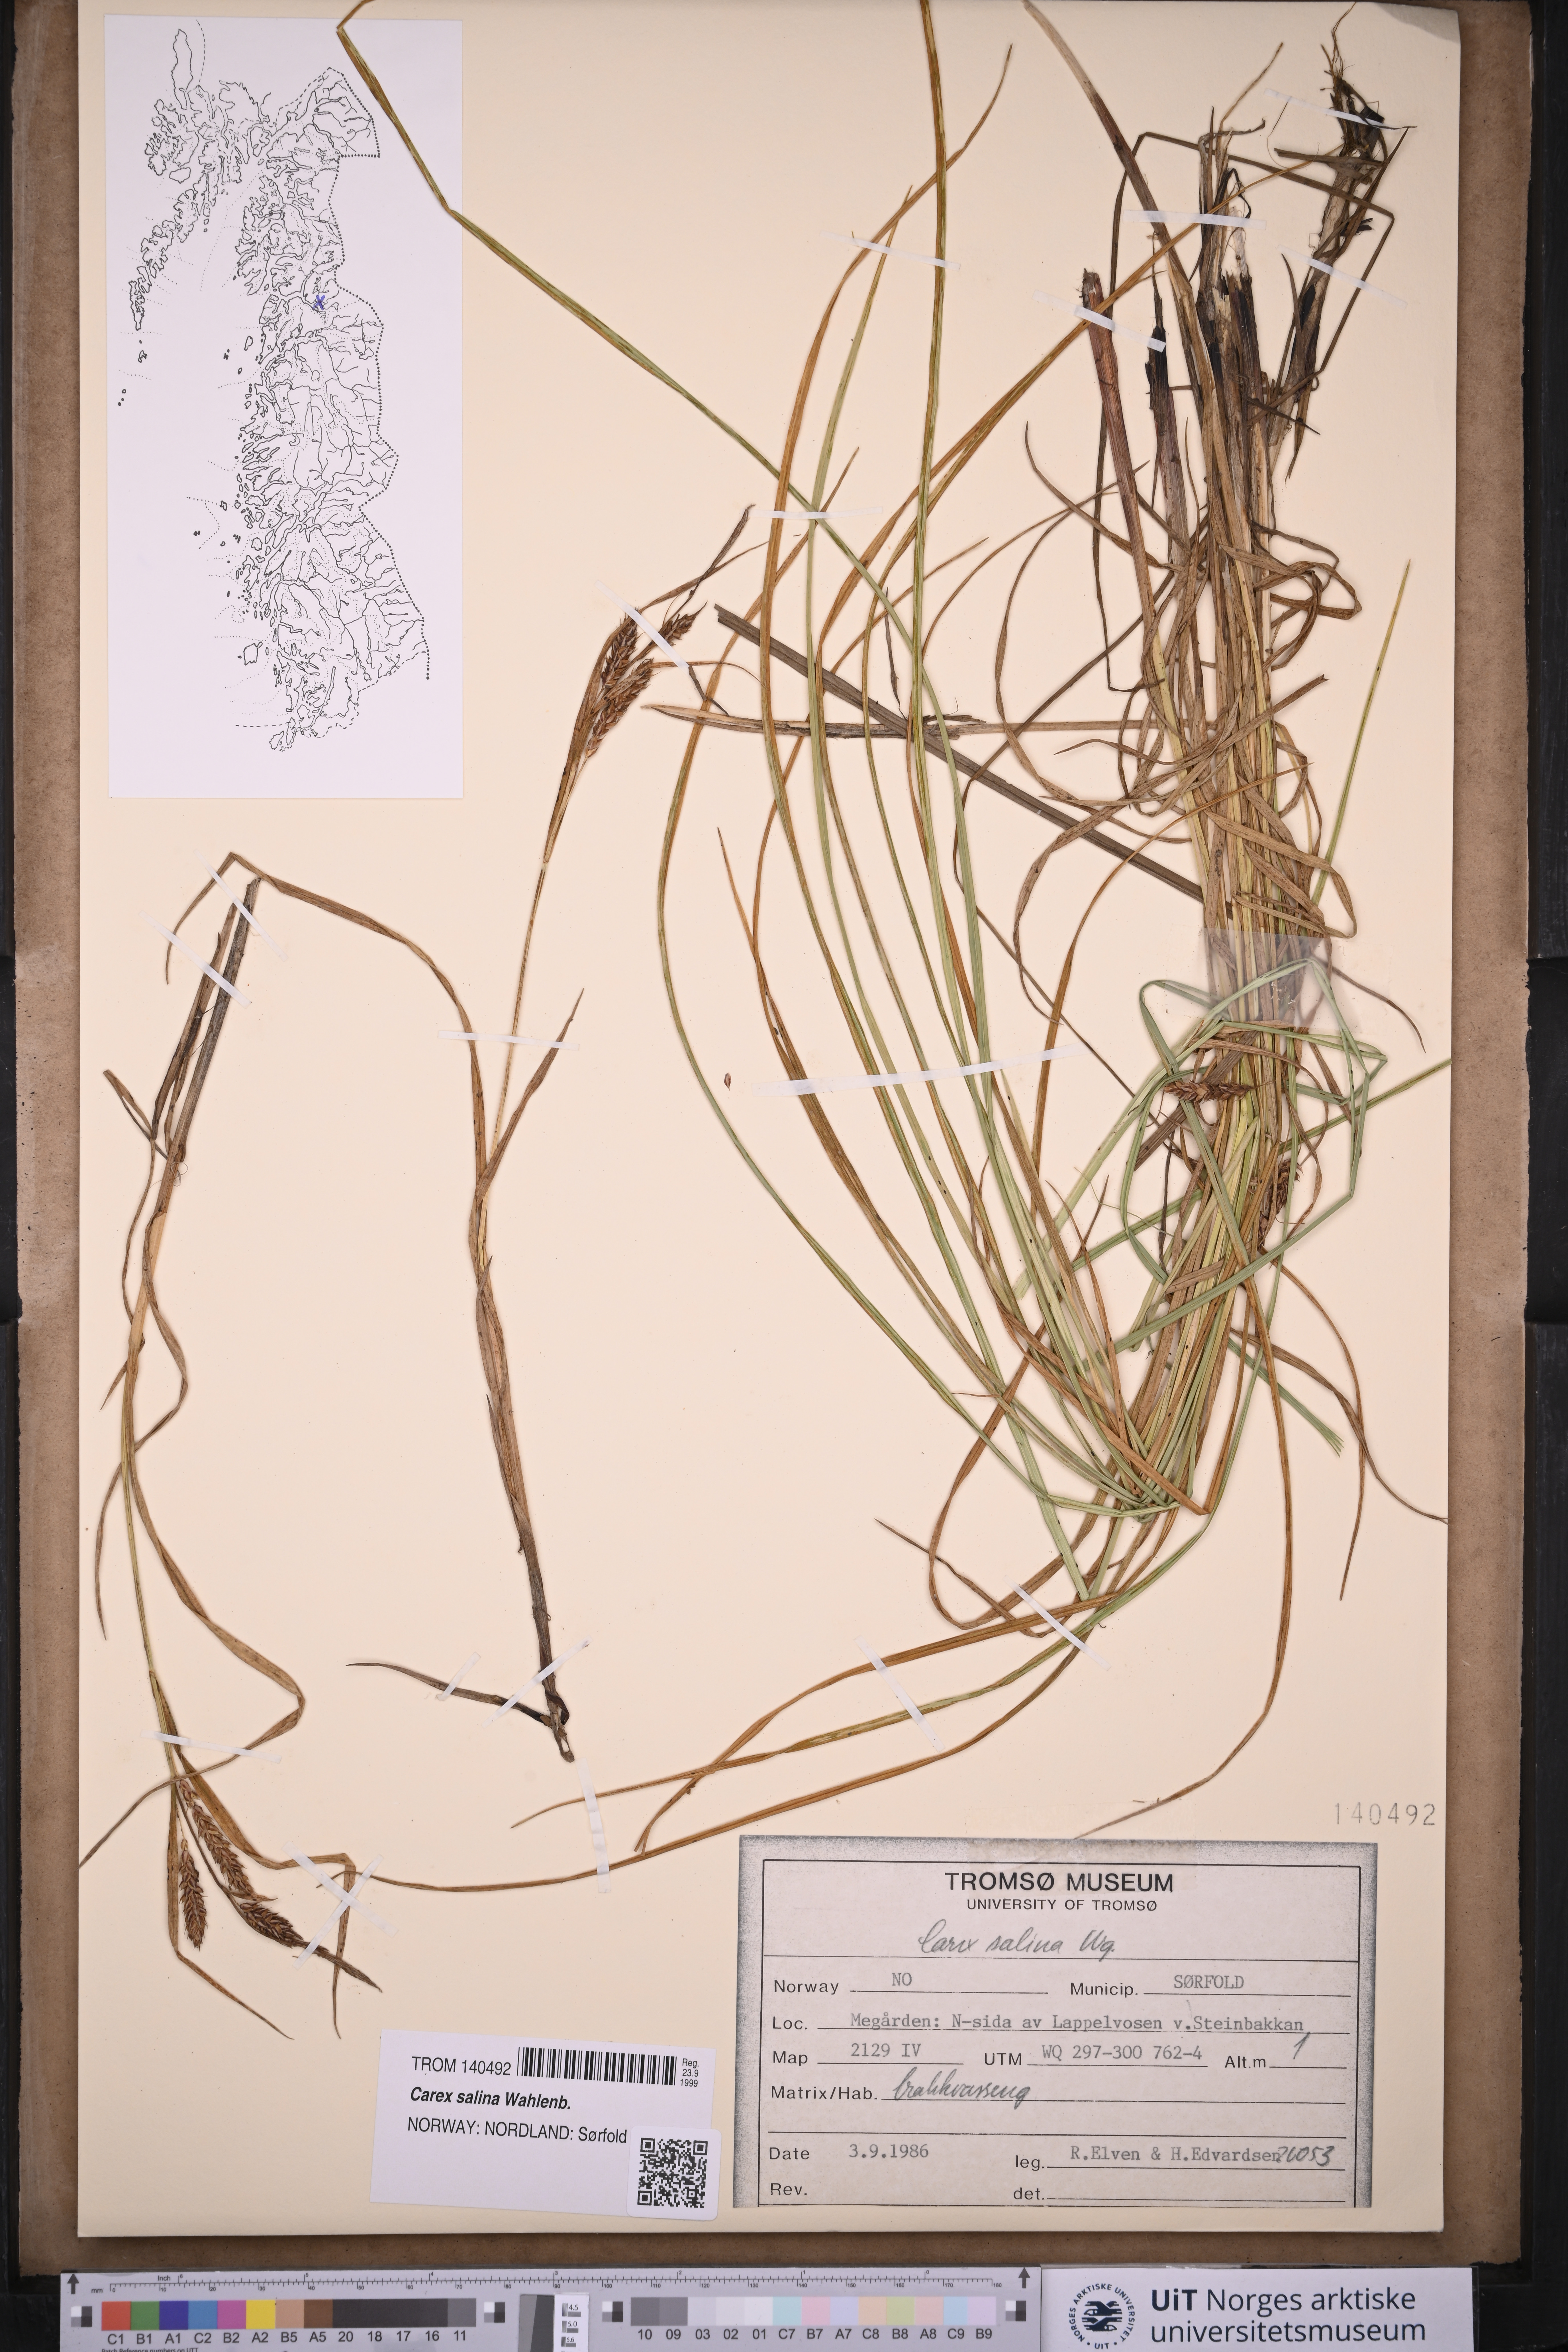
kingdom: Plantae
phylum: Tracheophyta
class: Liliopsida
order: Poales
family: Cyperaceae
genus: Carex
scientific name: Carex salina
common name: Saltmarsh sedge
